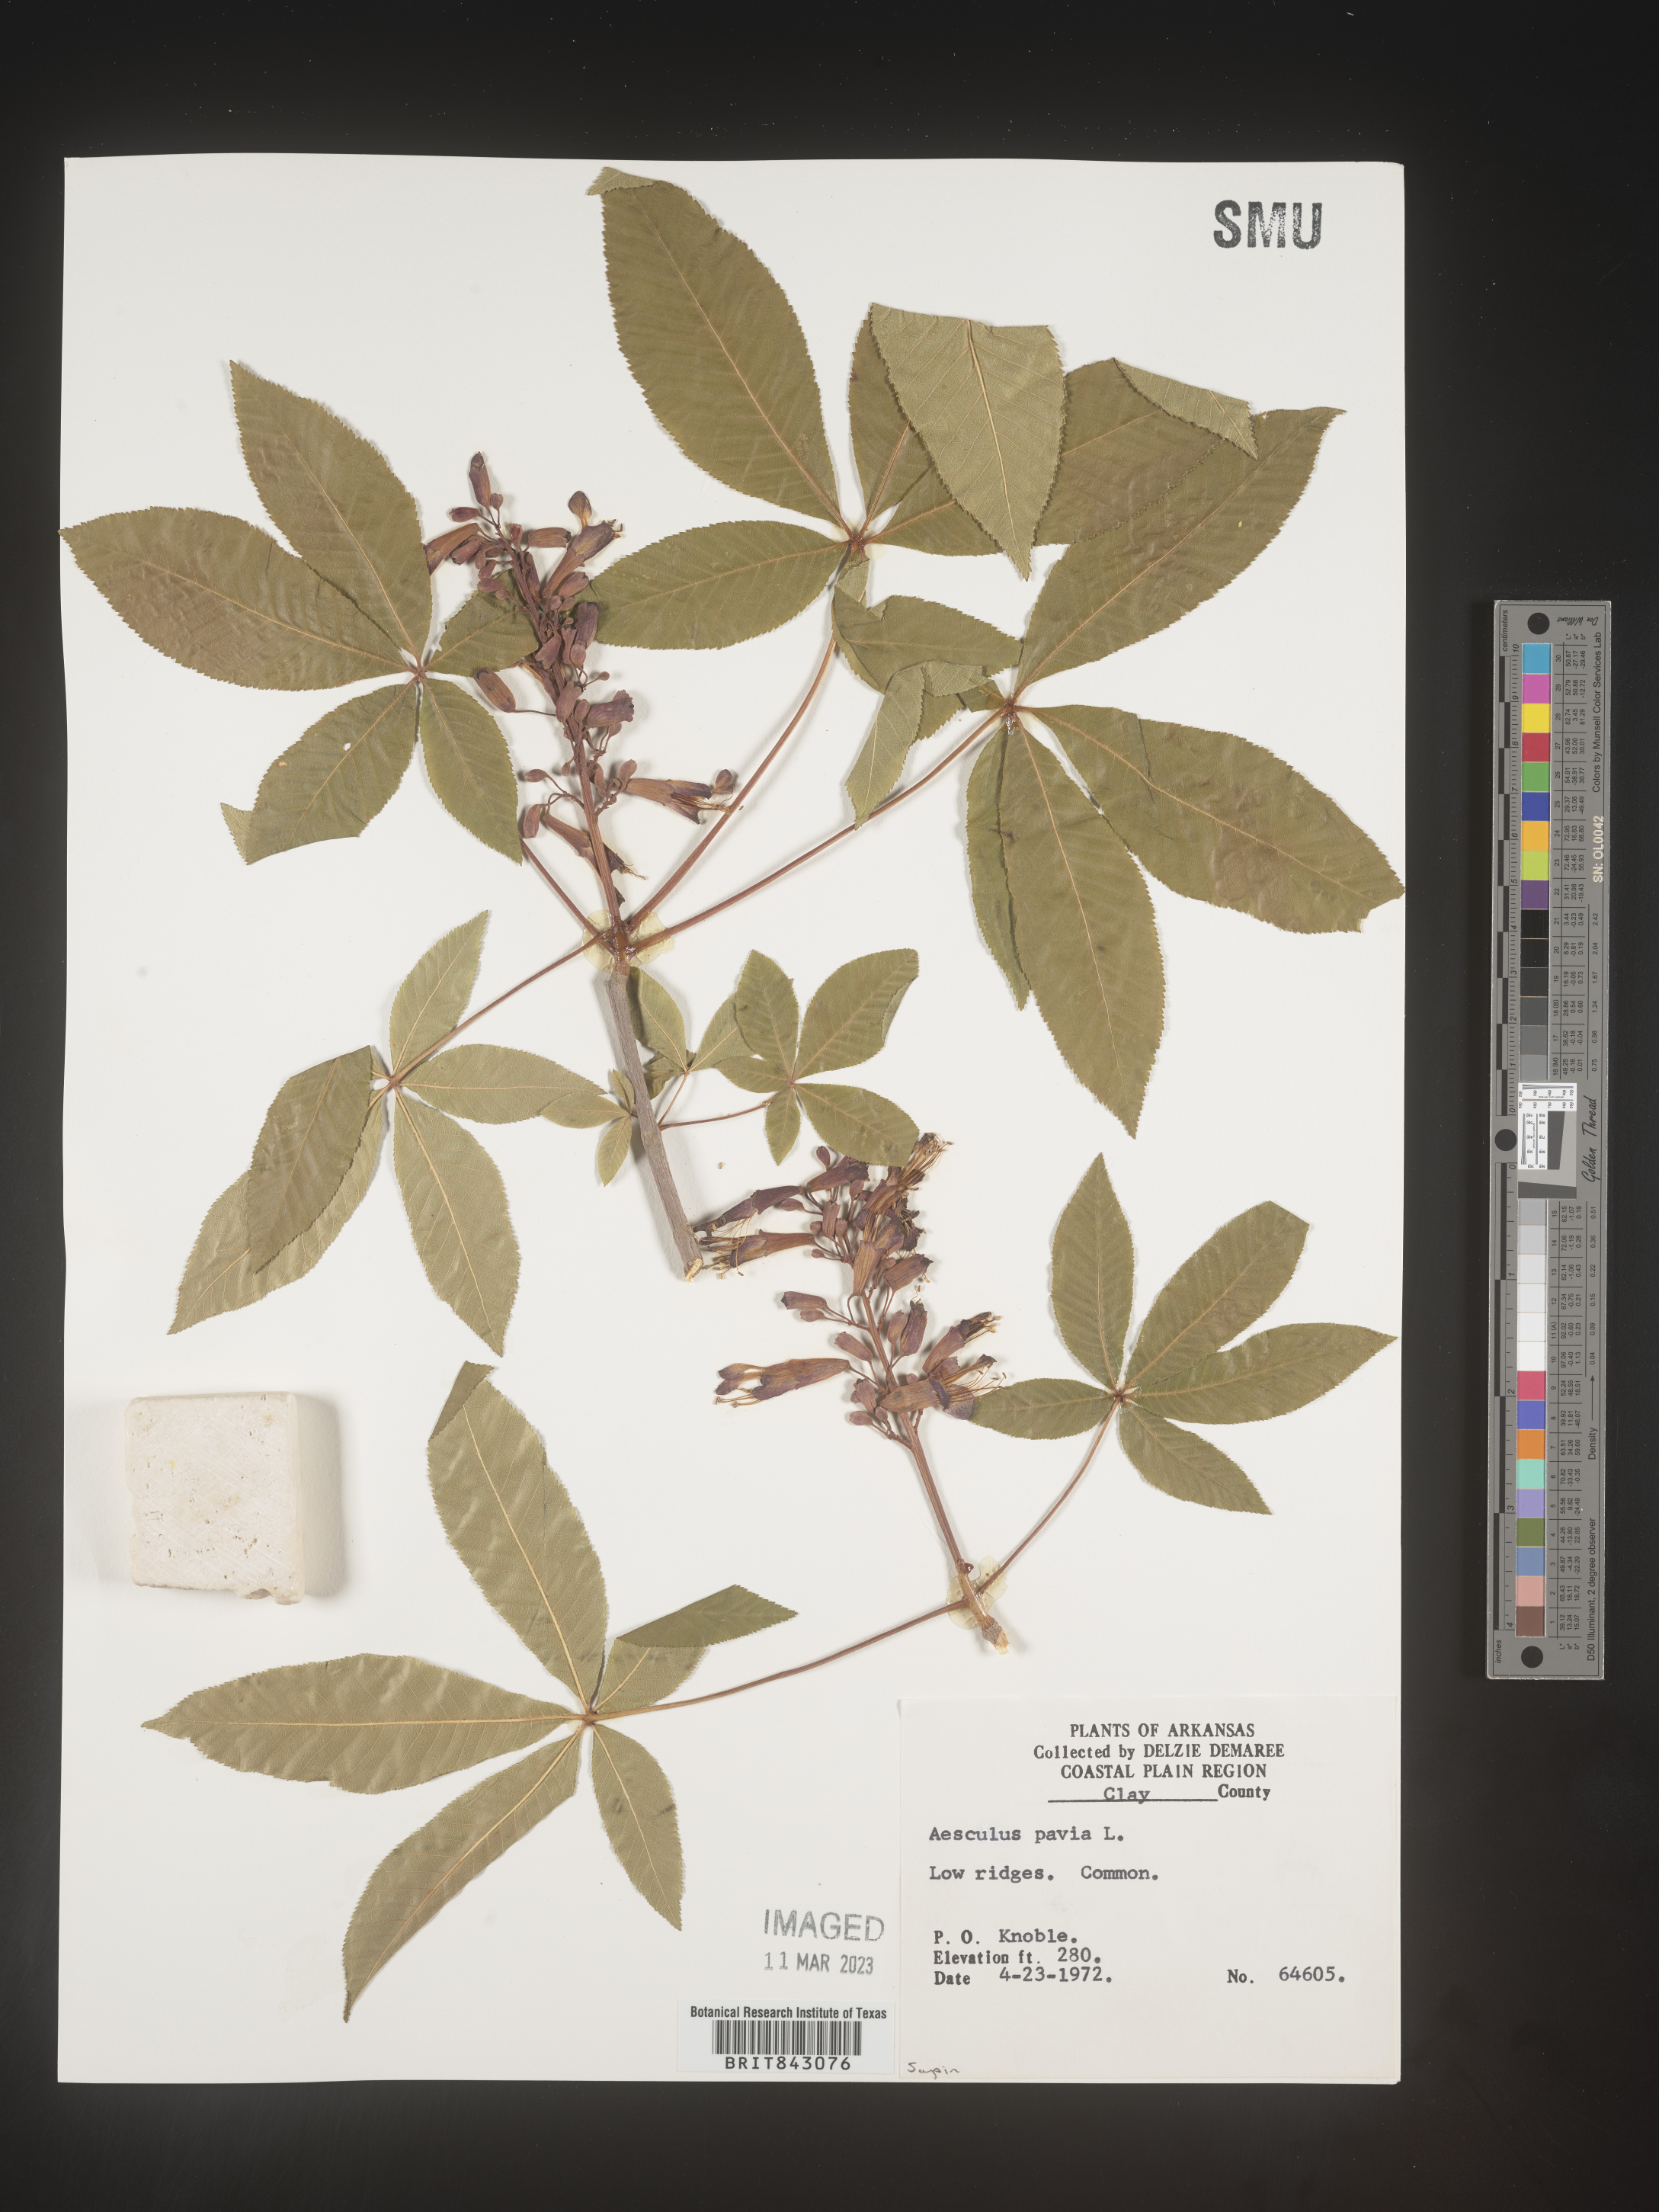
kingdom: Plantae
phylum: Tracheophyta
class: Magnoliopsida
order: Sapindales
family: Sapindaceae
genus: Aesculus
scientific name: Aesculus pavia
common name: Red buckeye
